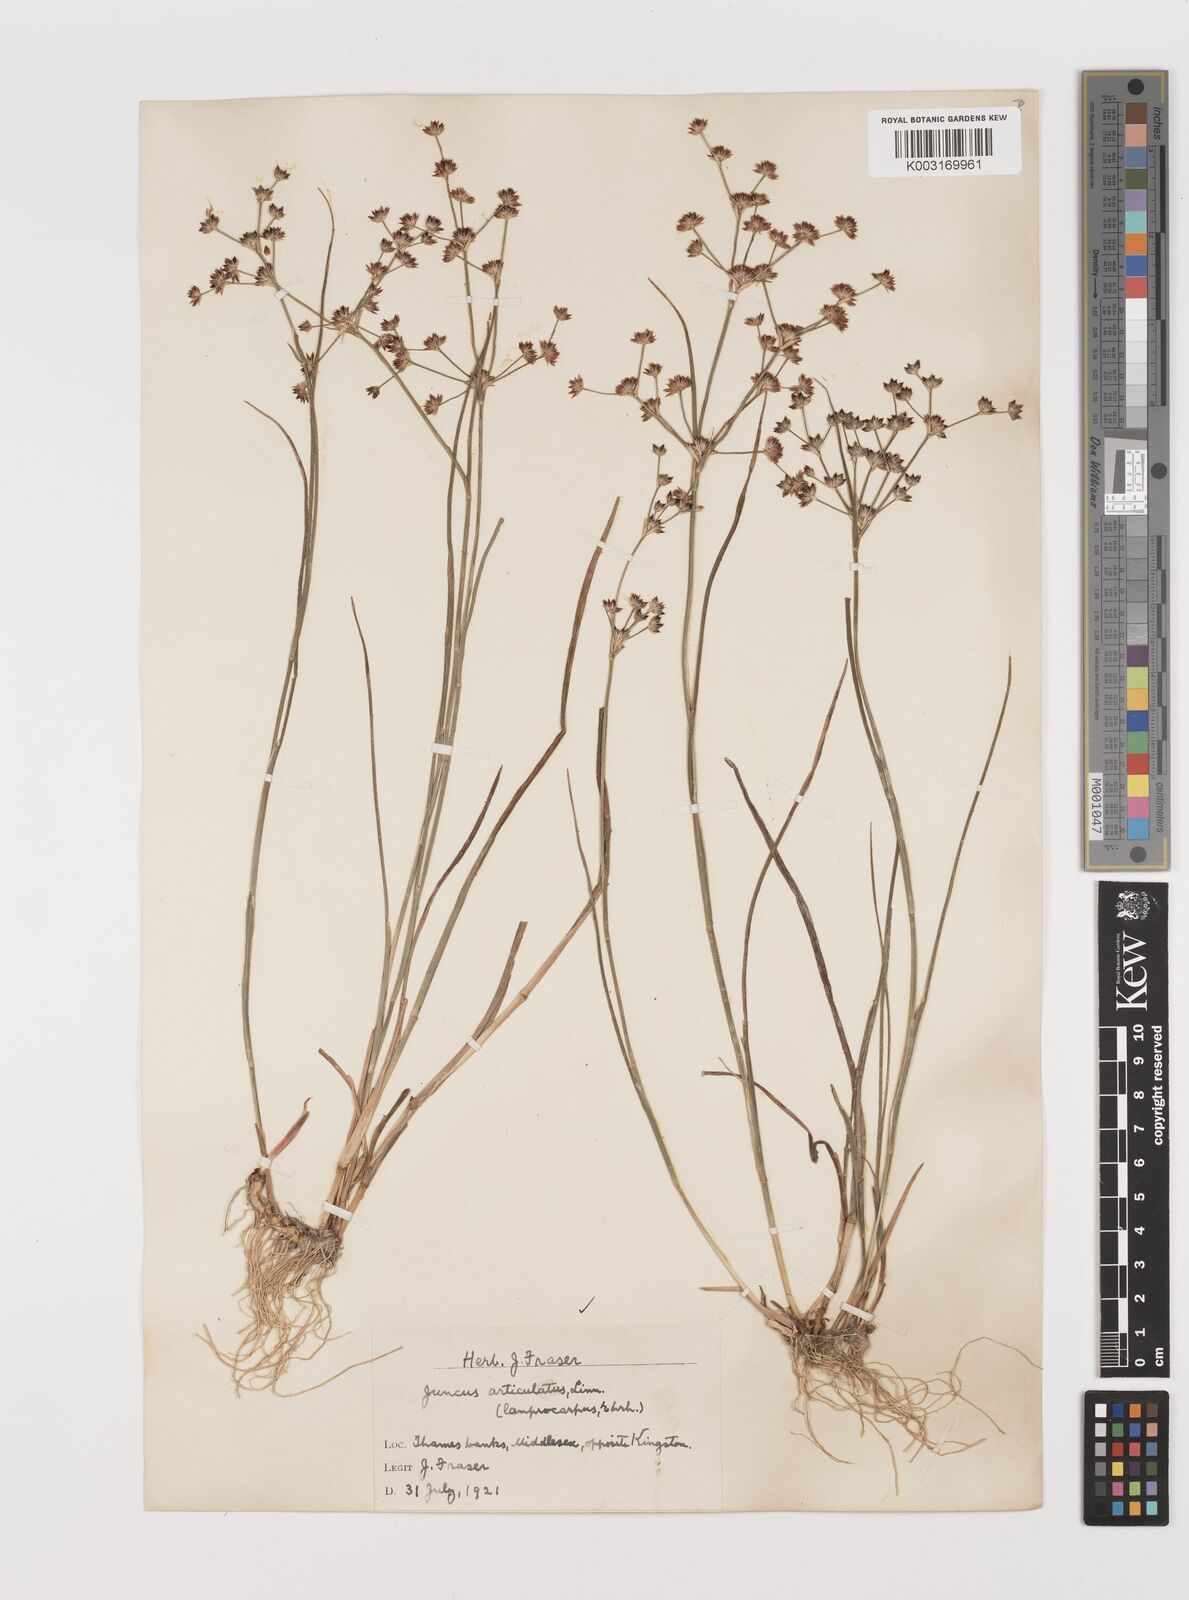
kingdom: Plantae
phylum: Tracheophyta
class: Liliopsida
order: Poales
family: Juncaceae
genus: Juncus
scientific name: Juncus articulatus
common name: Jointed rush
